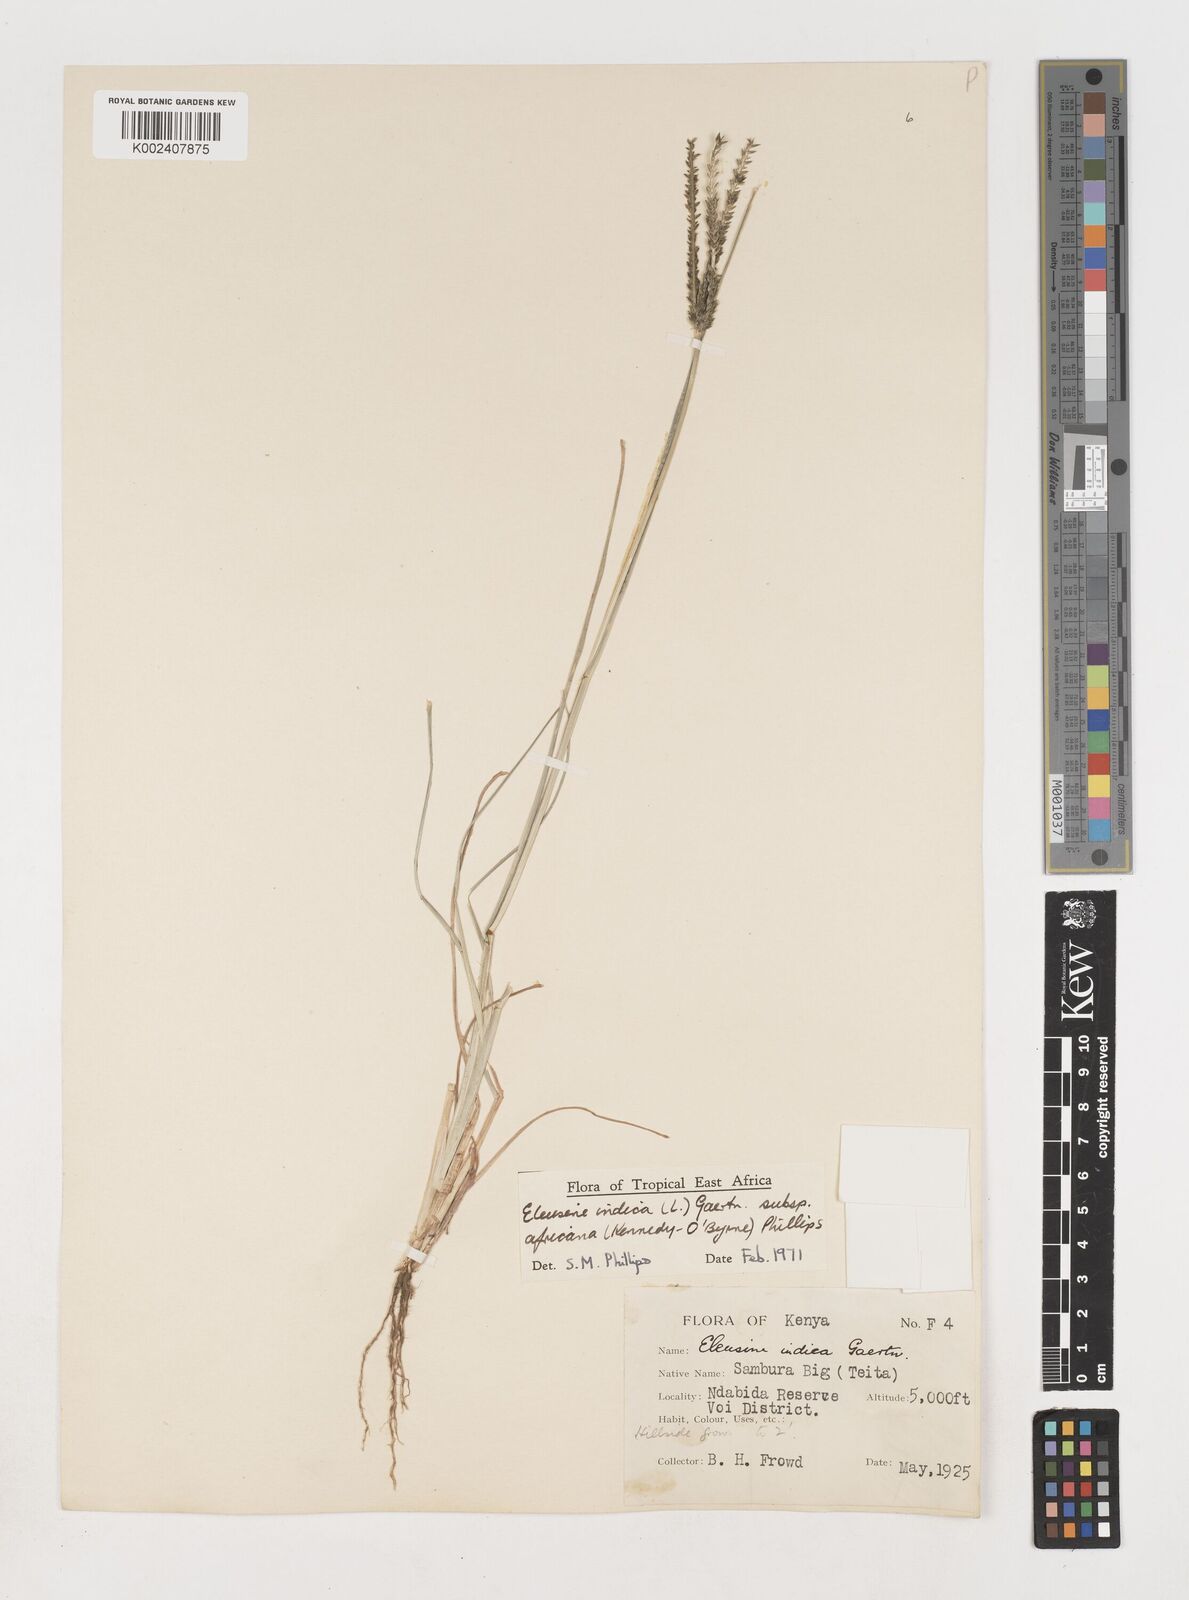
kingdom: Plantae
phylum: Tracheophyta
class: Liliopsida
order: Poales
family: Poaceae
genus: Eleusine
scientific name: Eleusine africana
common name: Wild african finger millet
